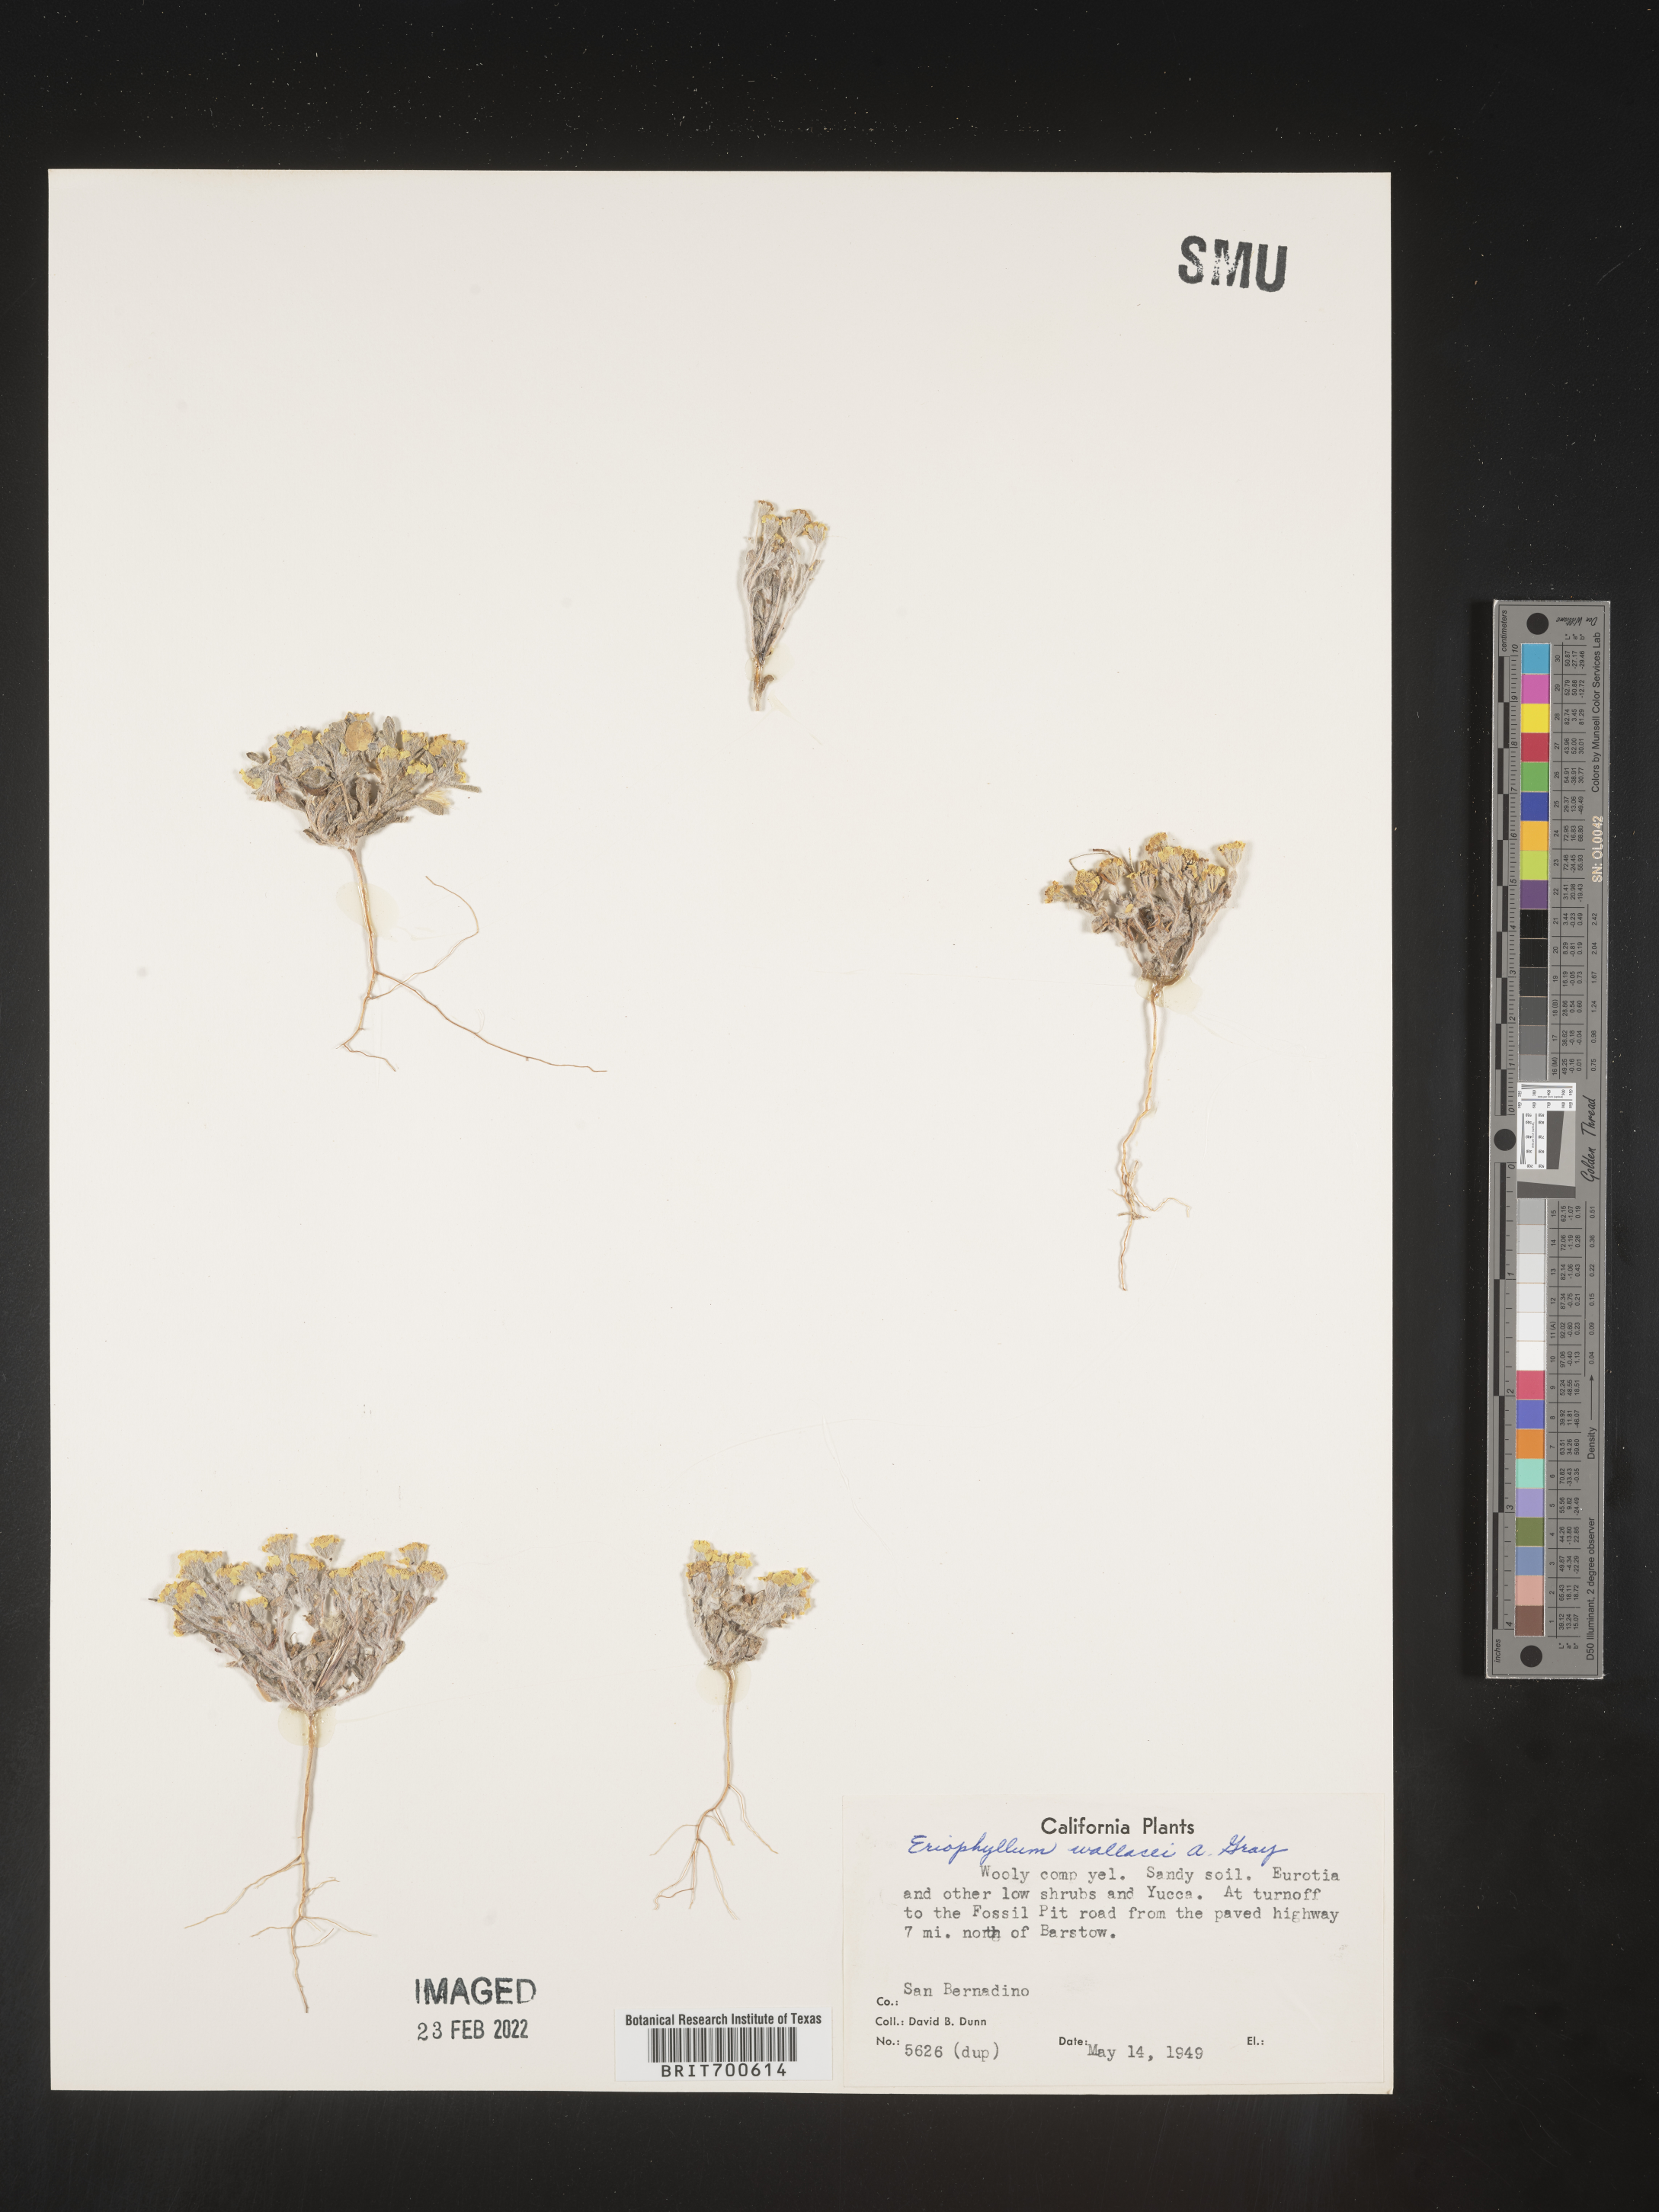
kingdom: Plantae
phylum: Tracheophyta
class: Magnoliopsida
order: Asterales
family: Asteraceae
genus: Eriophyllum
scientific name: Eriophyllum wallacei
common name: Wallace's woolly daisy
